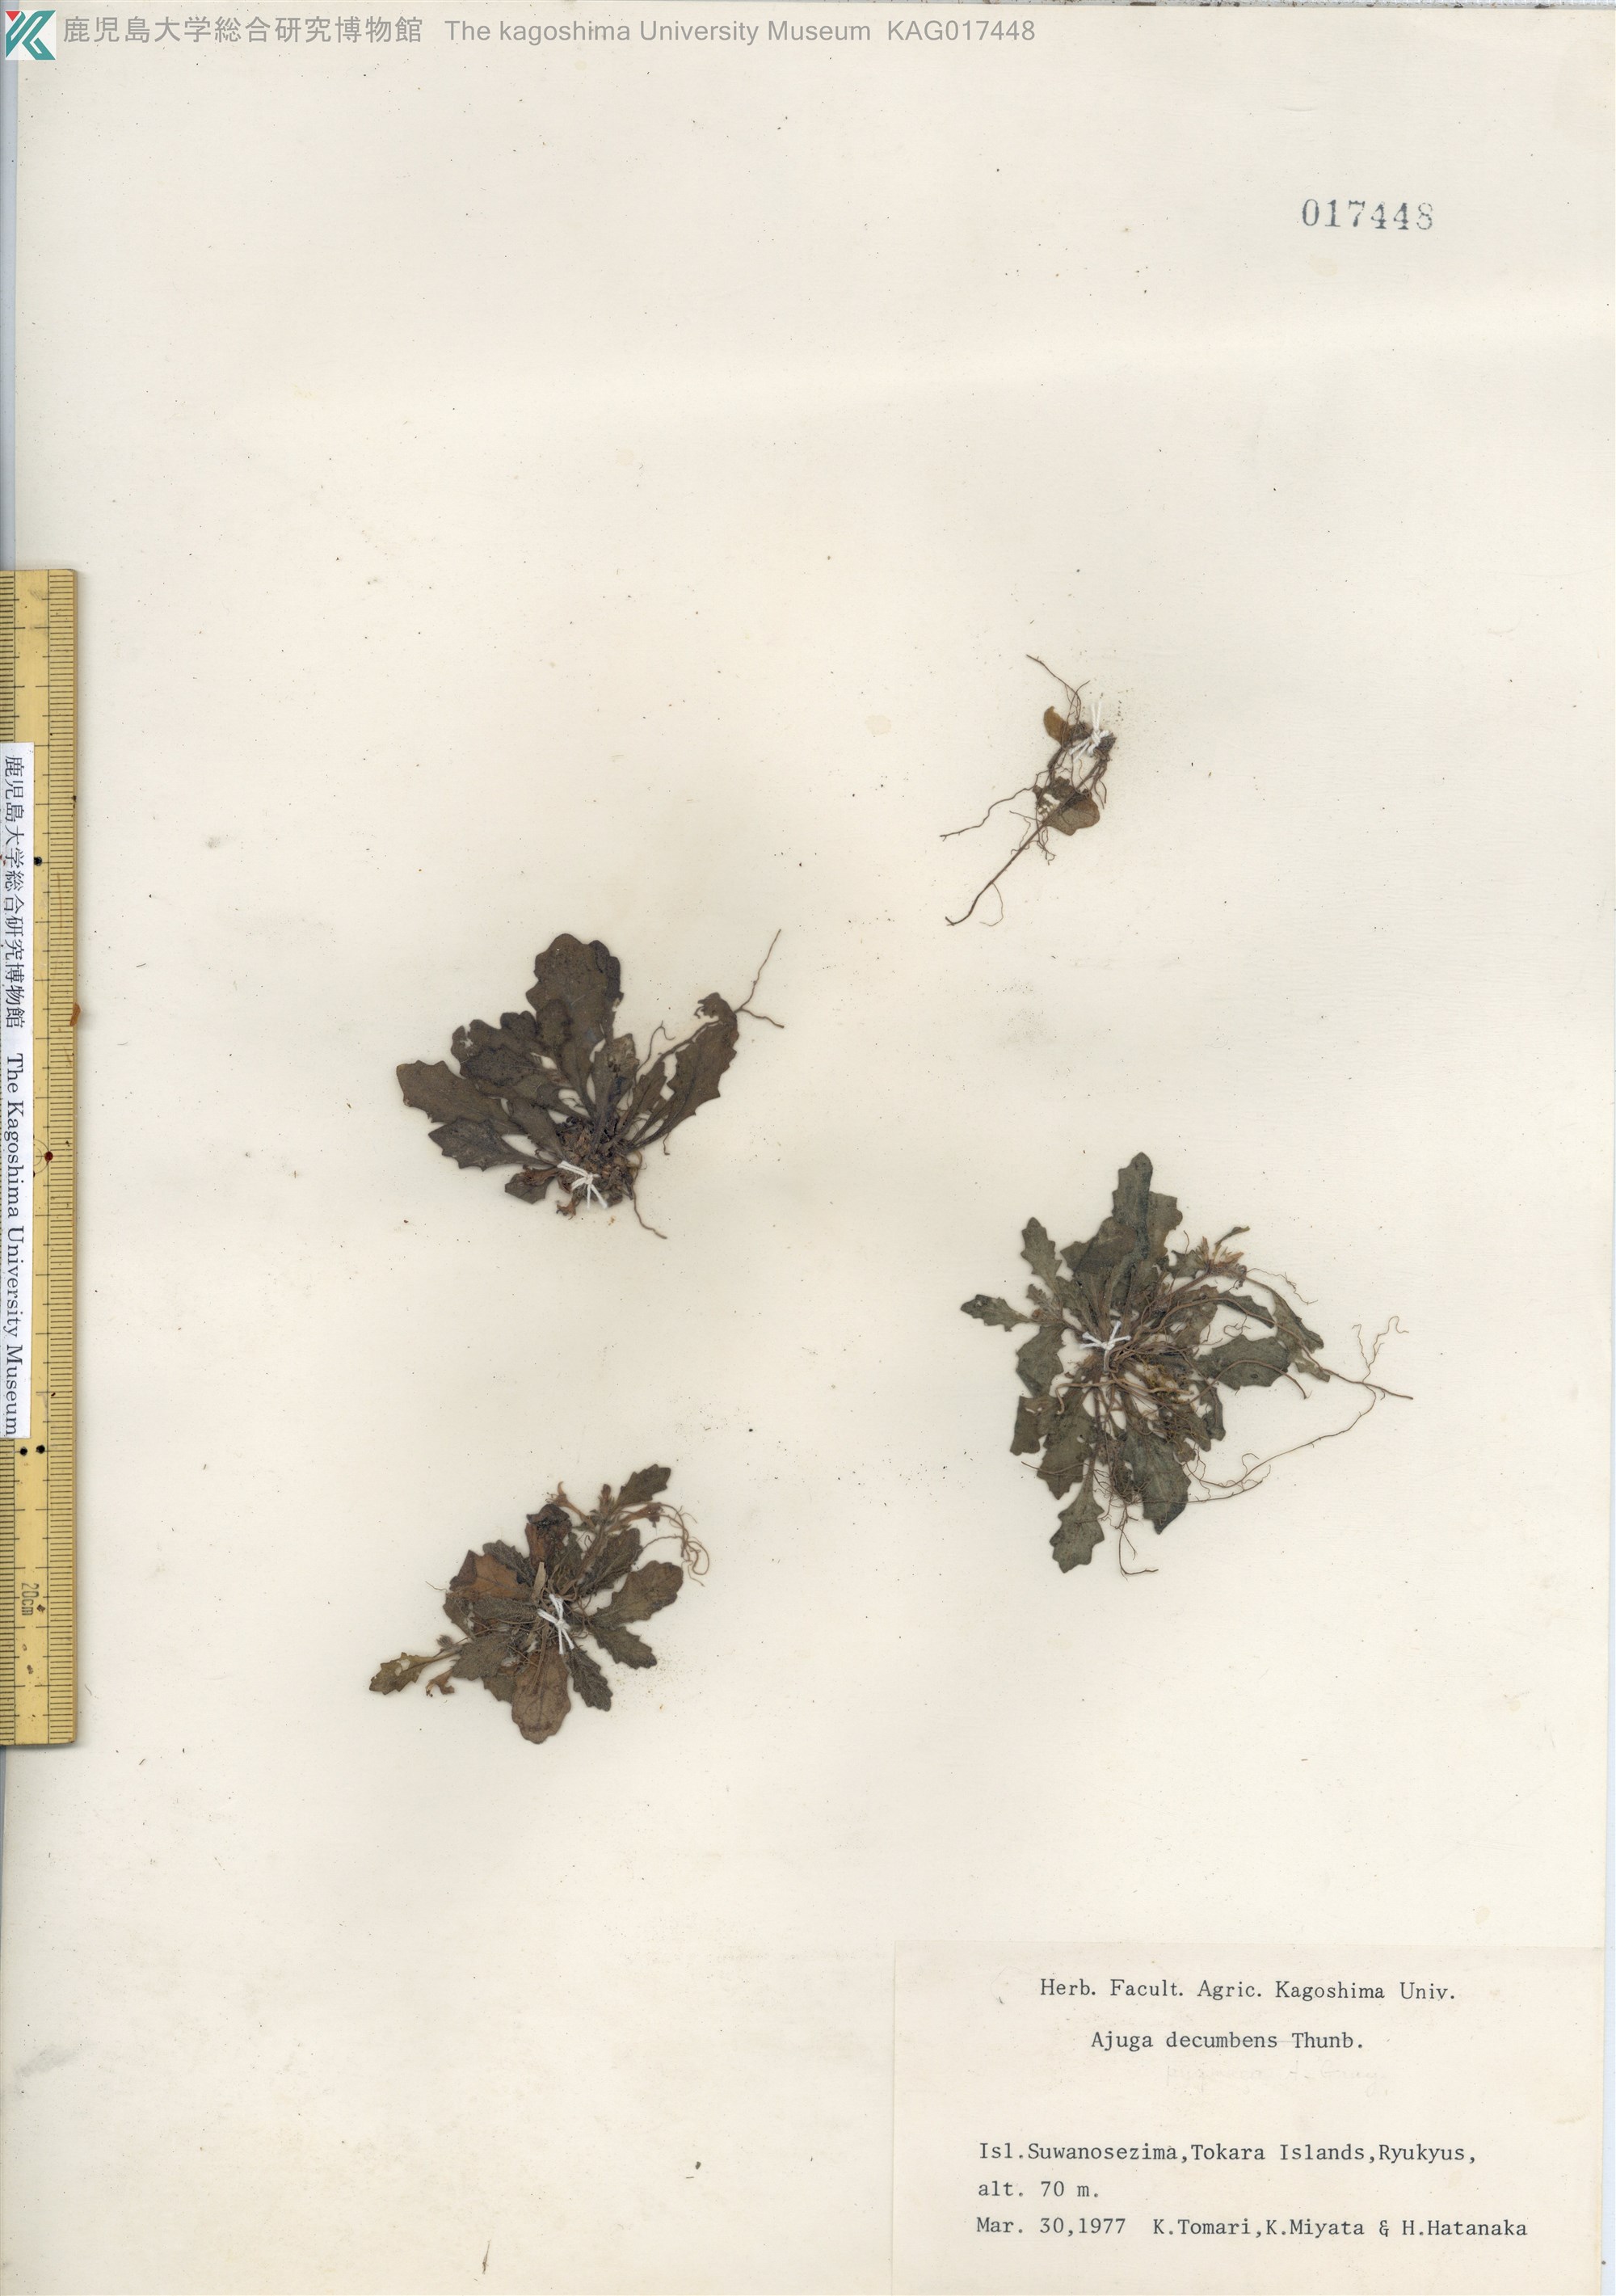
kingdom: Plantae
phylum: Tracheophyta
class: Magnoliopsida
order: Lamiales
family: Lamiaceae
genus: Ajuga
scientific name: Ajuga decumbens
